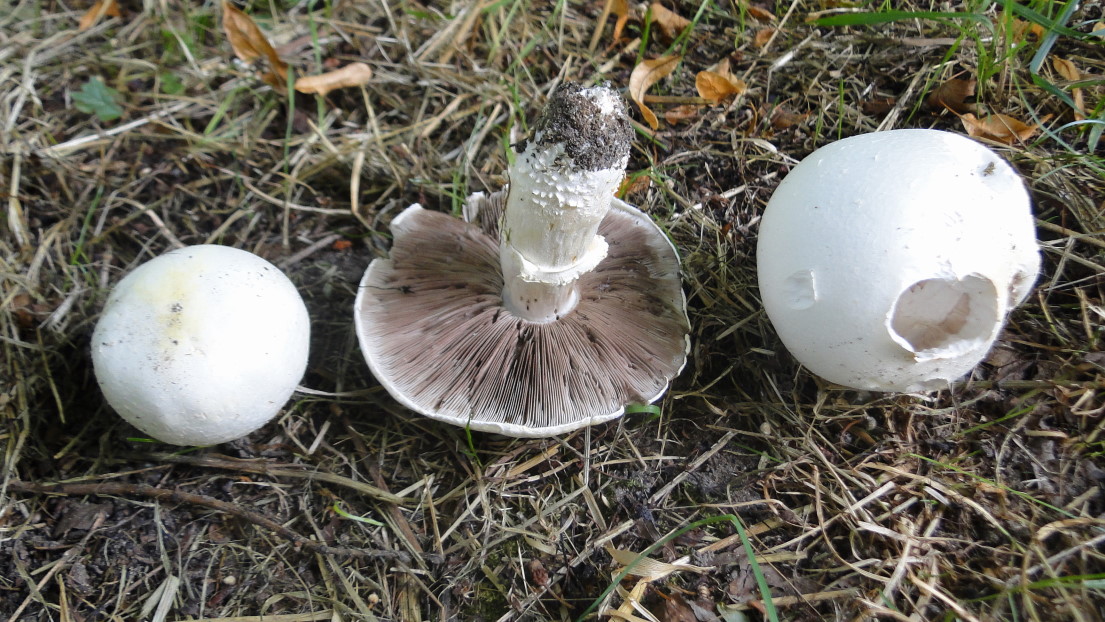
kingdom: Fungi
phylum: Basidiomycota
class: Agaricomycetes
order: Agaricales
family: Agaricaceae
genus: Agaricus
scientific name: Agaricus sylvicola
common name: gulhvid champignon
